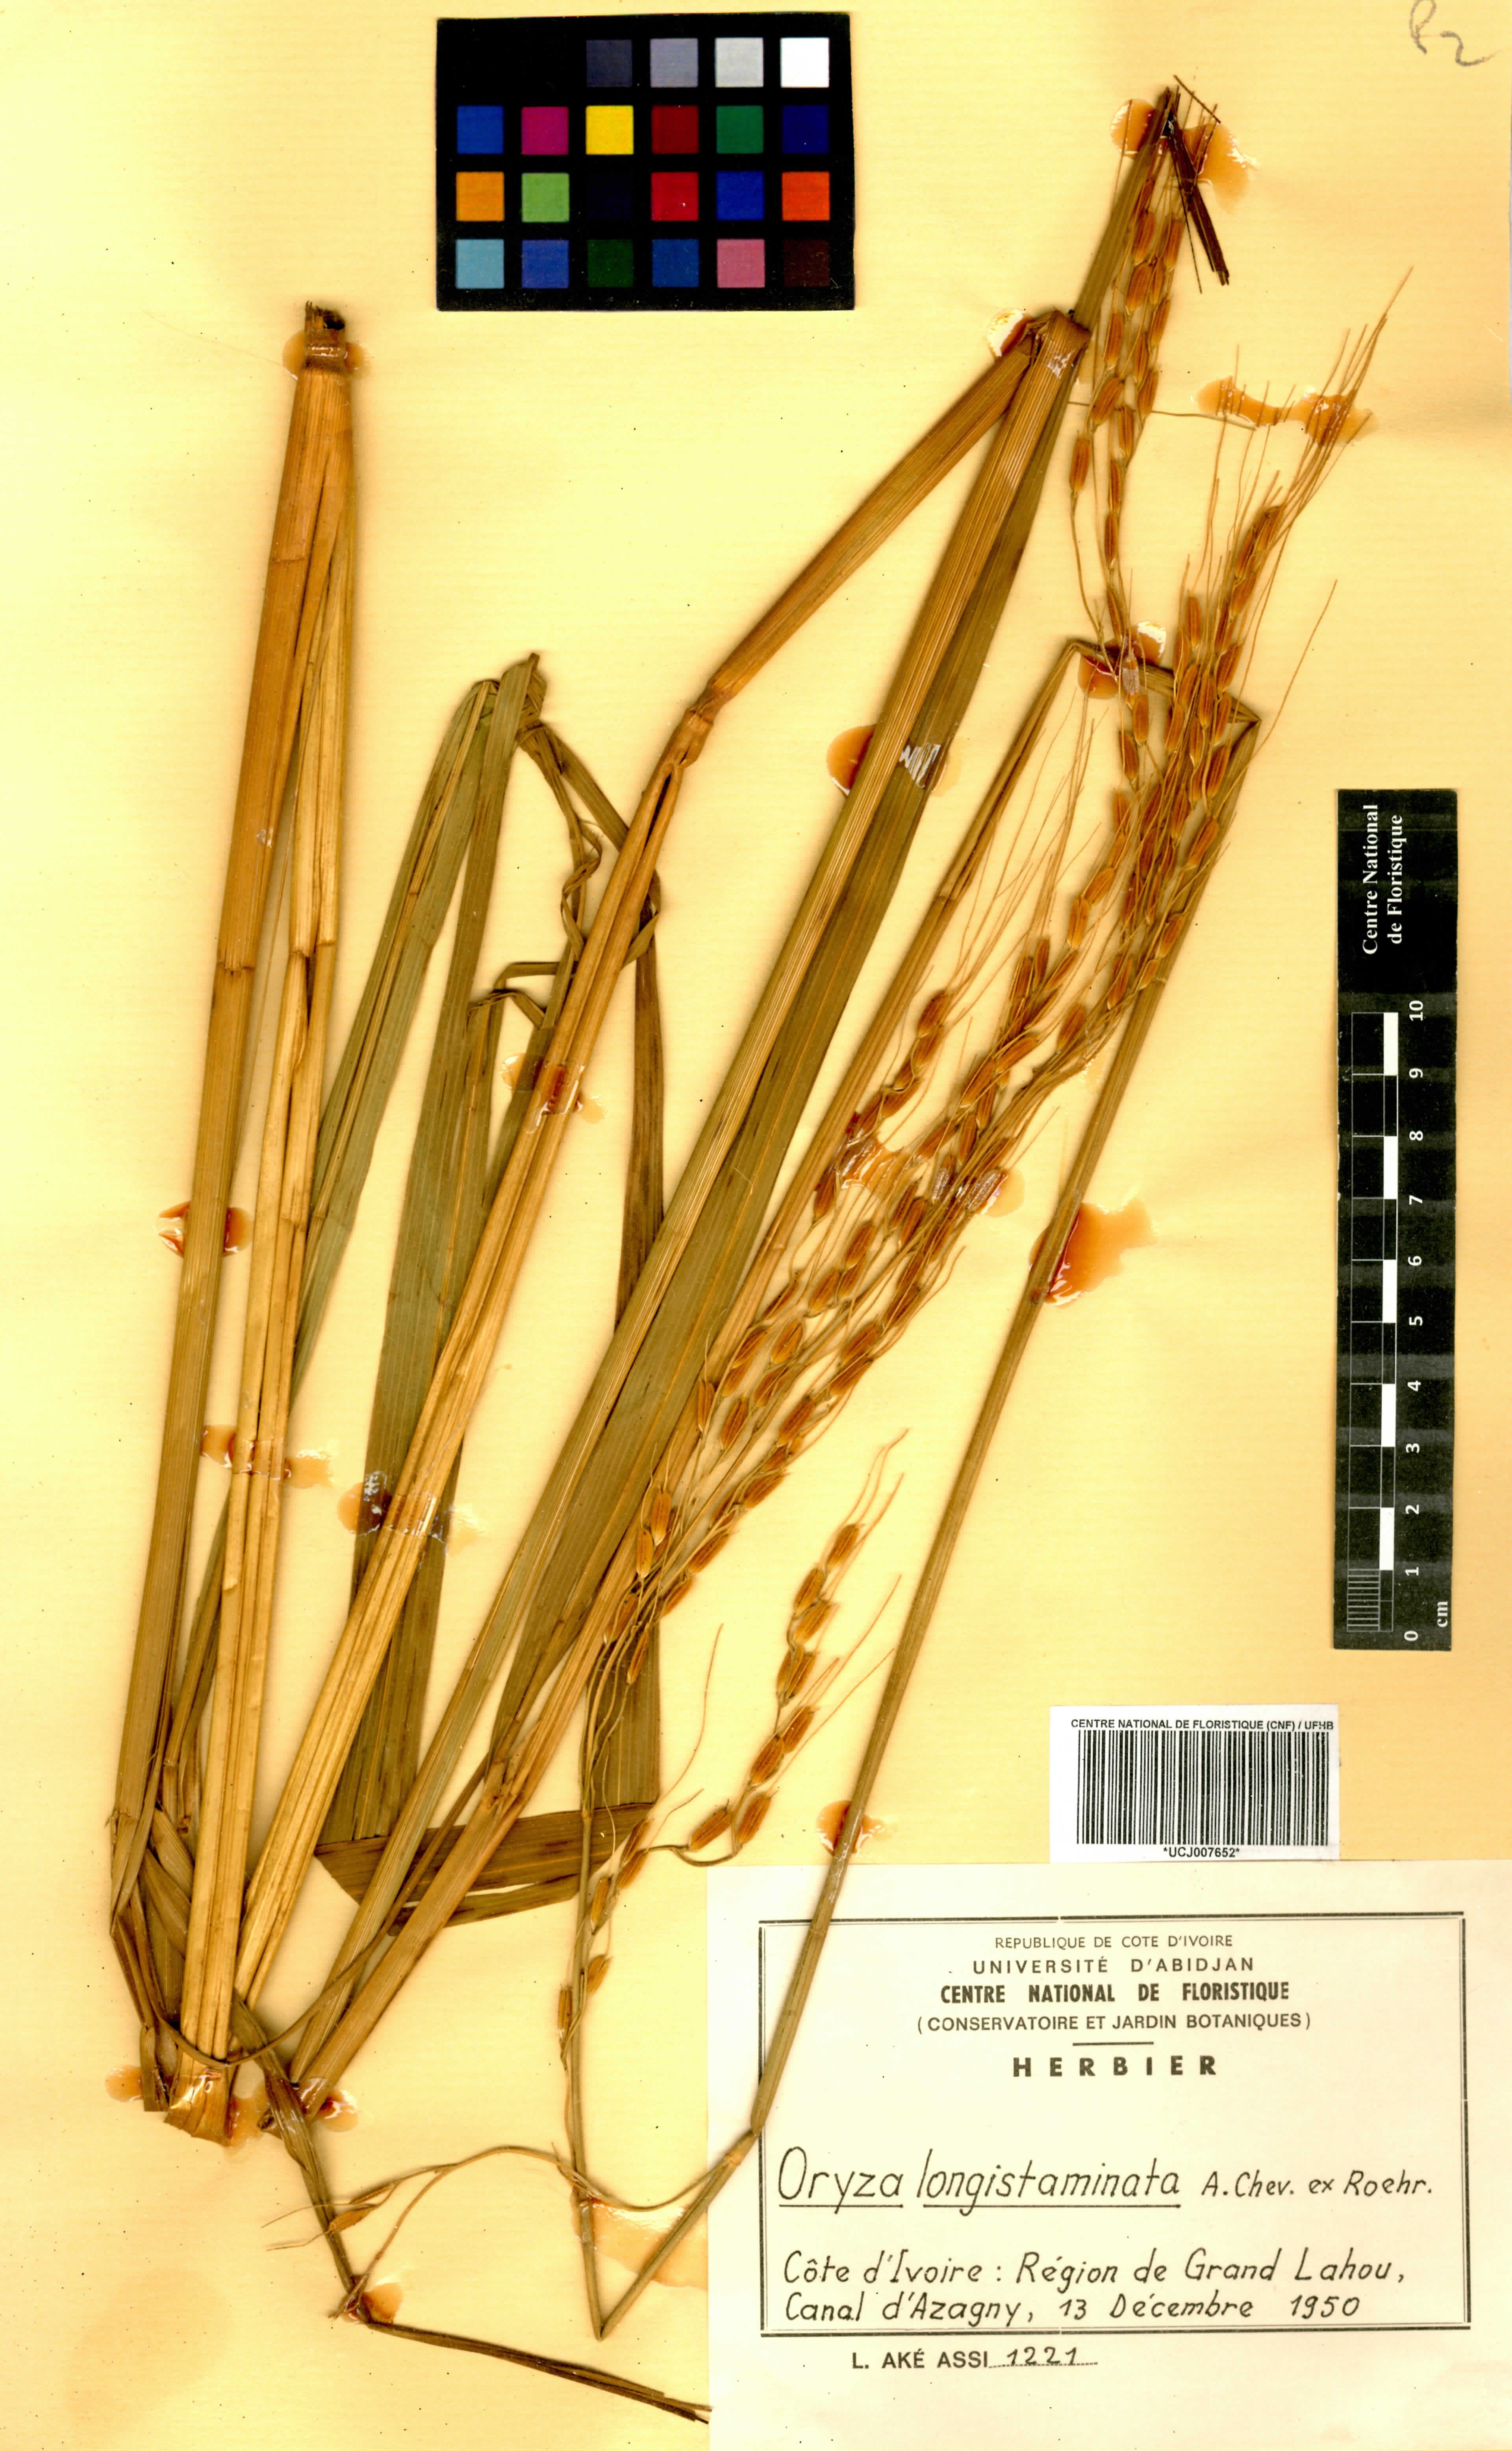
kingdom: Plantae
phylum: Tracheophyta
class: Liliopsida
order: Poales
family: Poaceae
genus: Oryza
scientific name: Oryza longistaminata
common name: Red rice
